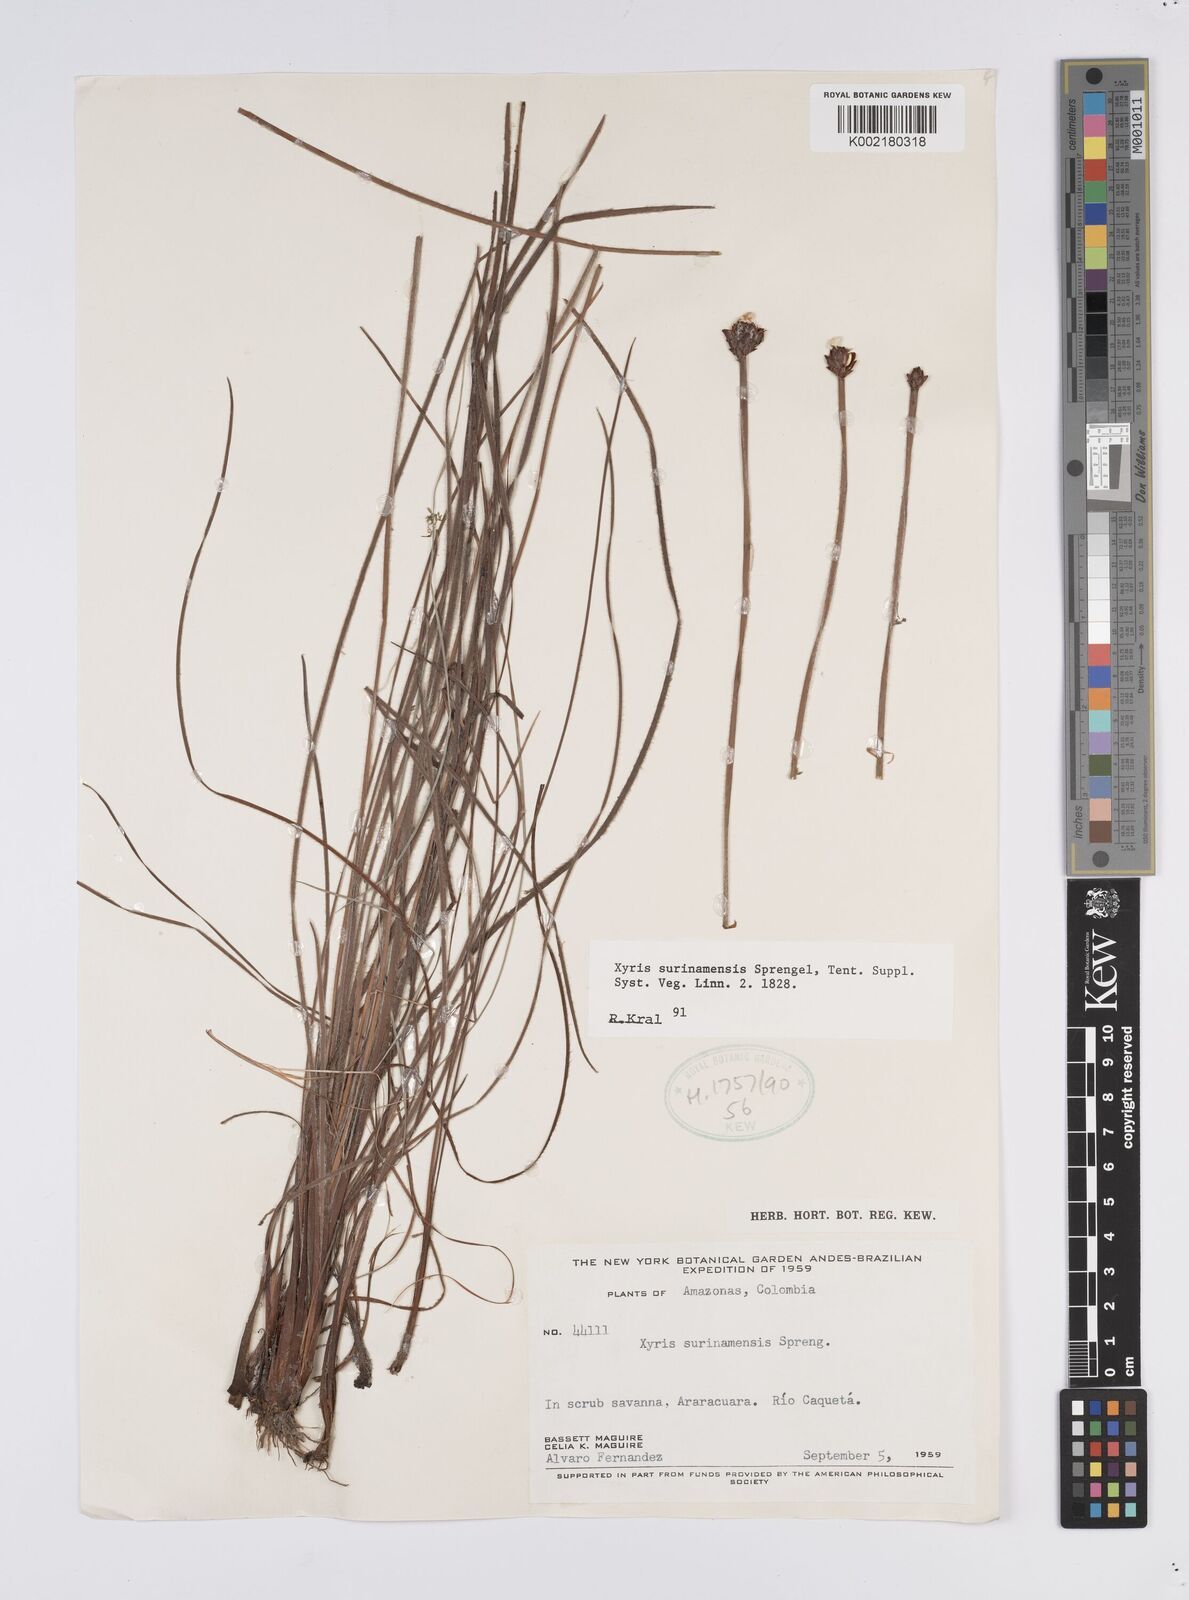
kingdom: Plantae
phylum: Tracheophyta
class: Liliopsida
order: Poales
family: Xyridaceae
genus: Xyris
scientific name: Xyris surinamensis
